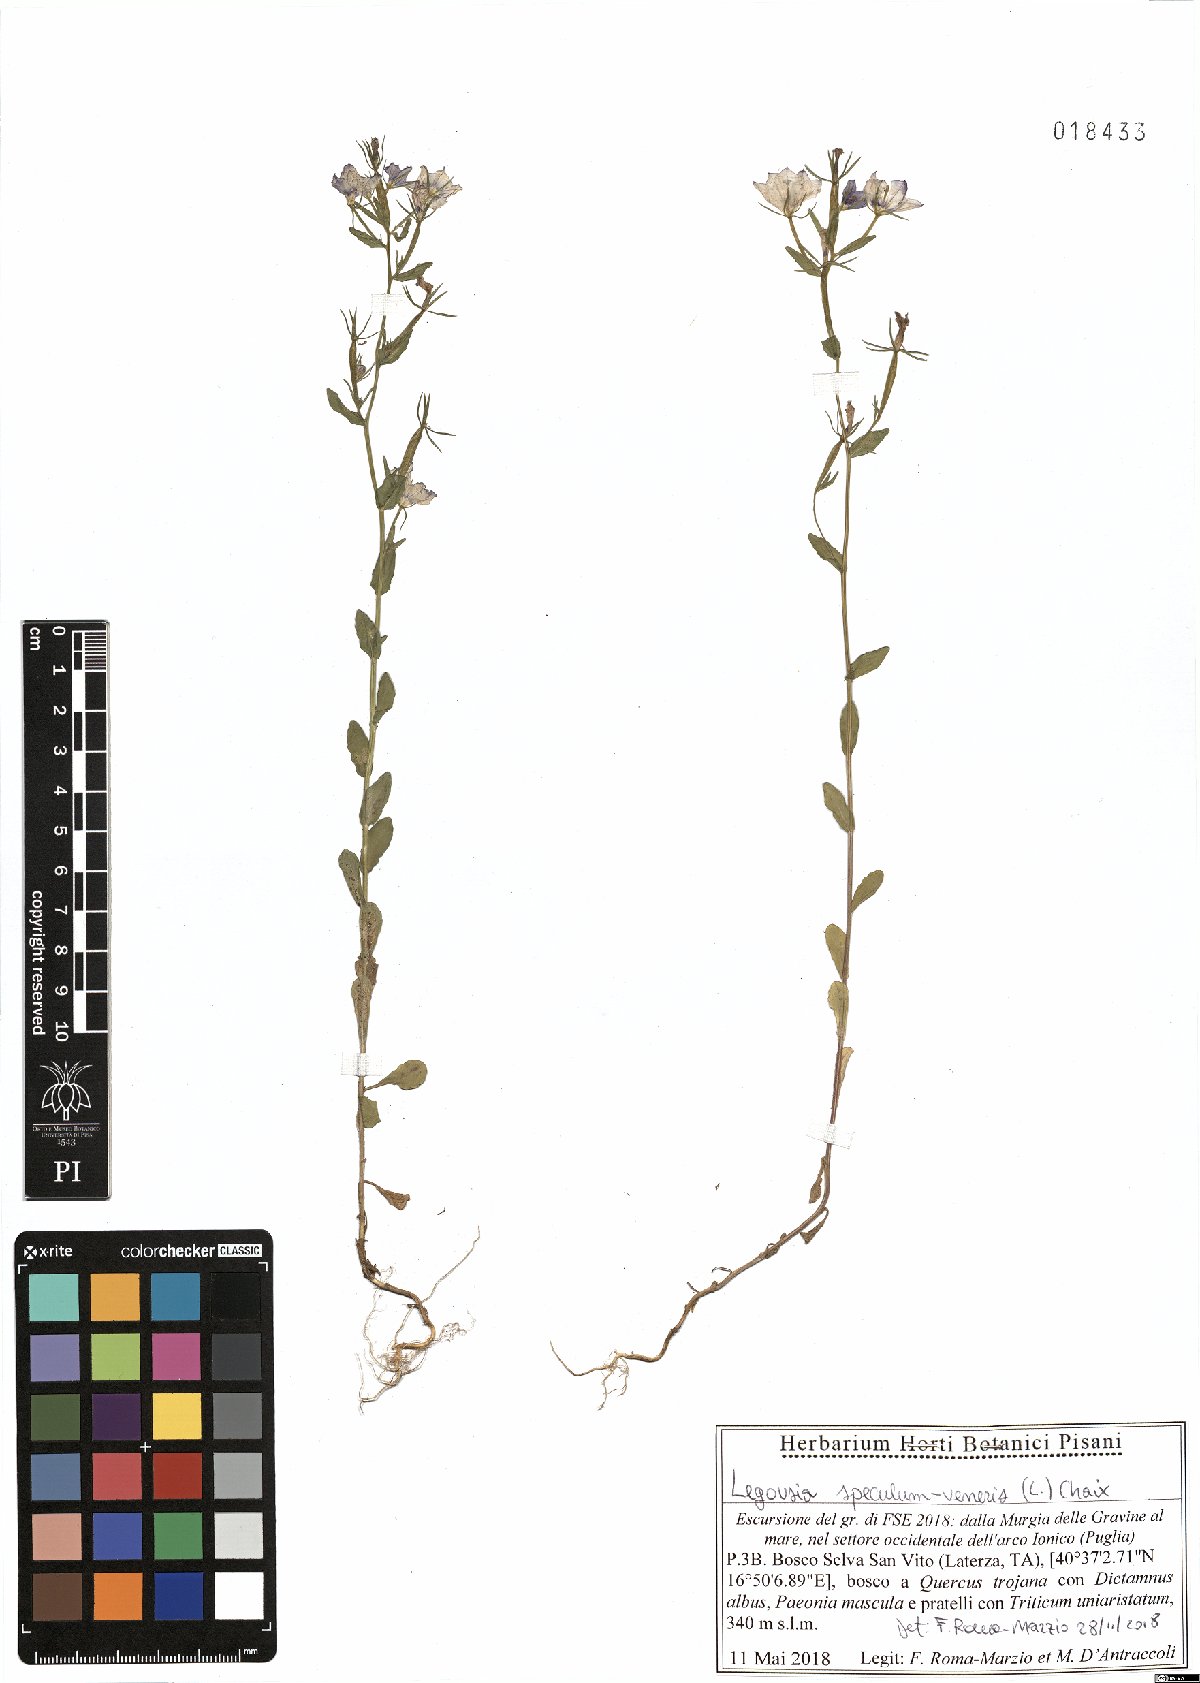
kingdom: Plantae
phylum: Tracheophyta
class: Magnoliopsida
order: Asterales
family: Campanulaceae
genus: Legousia
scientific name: Legousia speculum-veneris
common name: Large venus's-looking-glass
